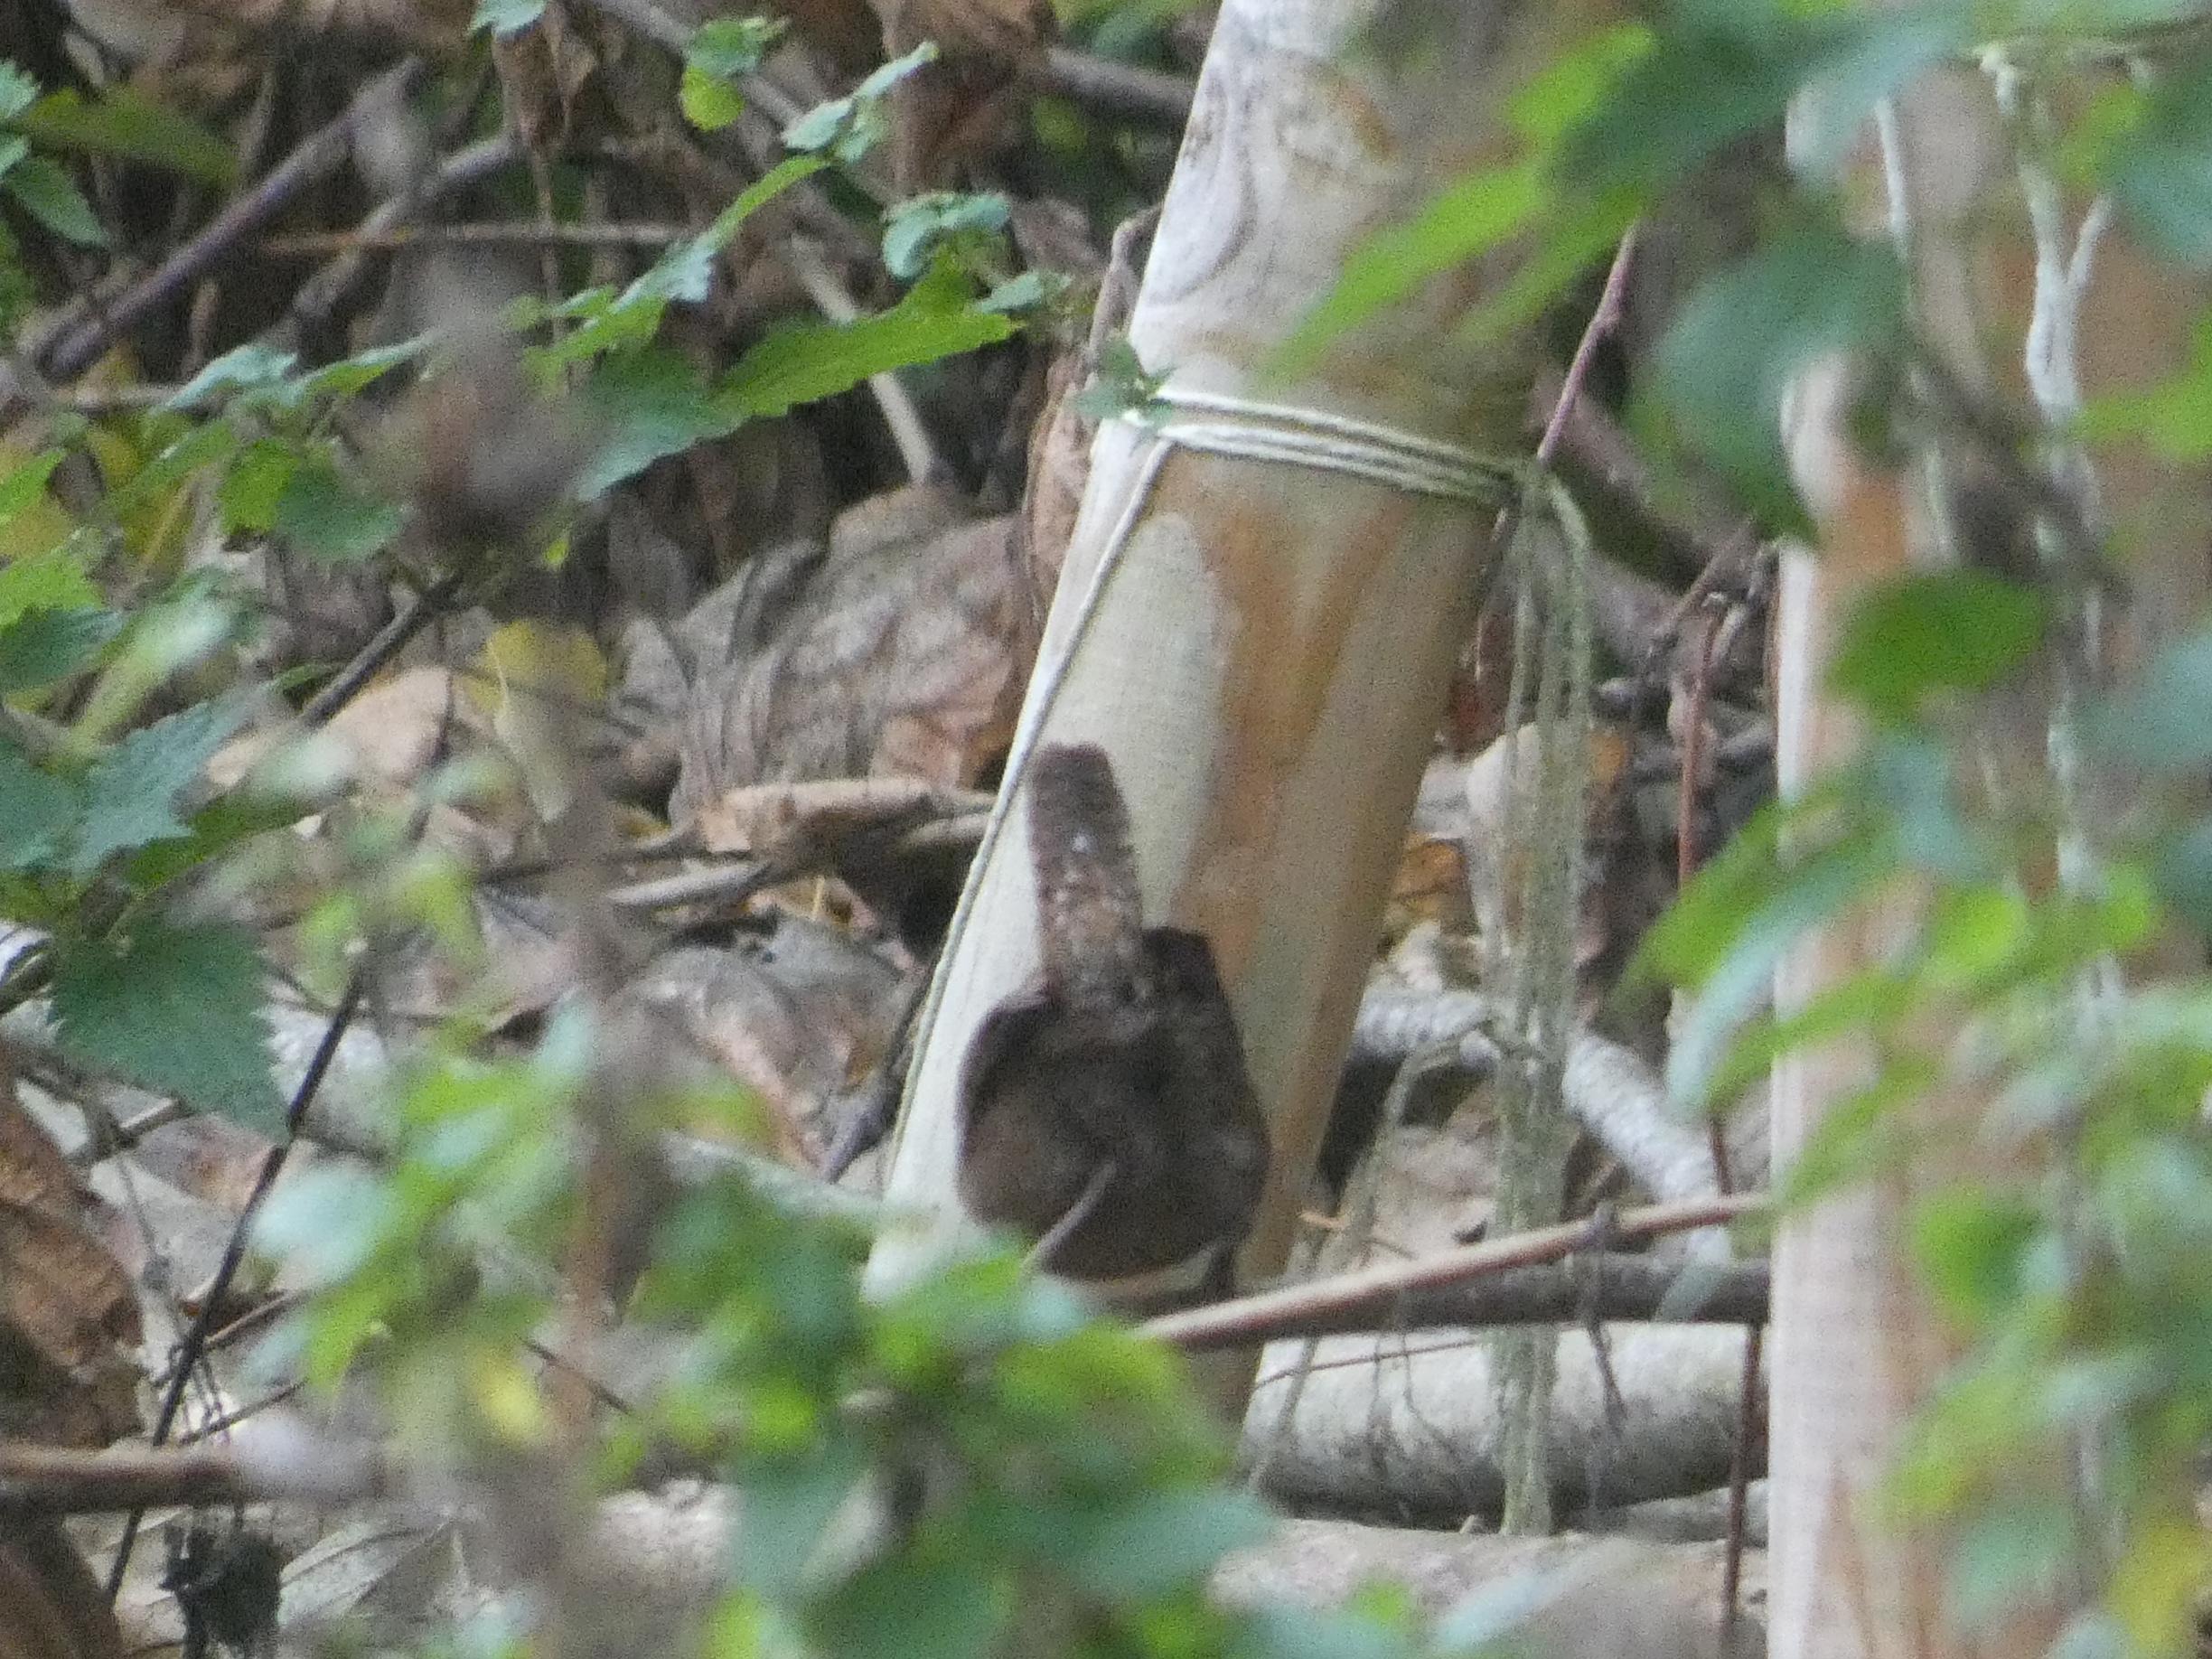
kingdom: Animalia
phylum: Chordata
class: Aves
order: Passeriformes
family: Troglodytidae
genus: Troglodytes
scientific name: Troglodytes troglodytes
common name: Gærdesmutte
